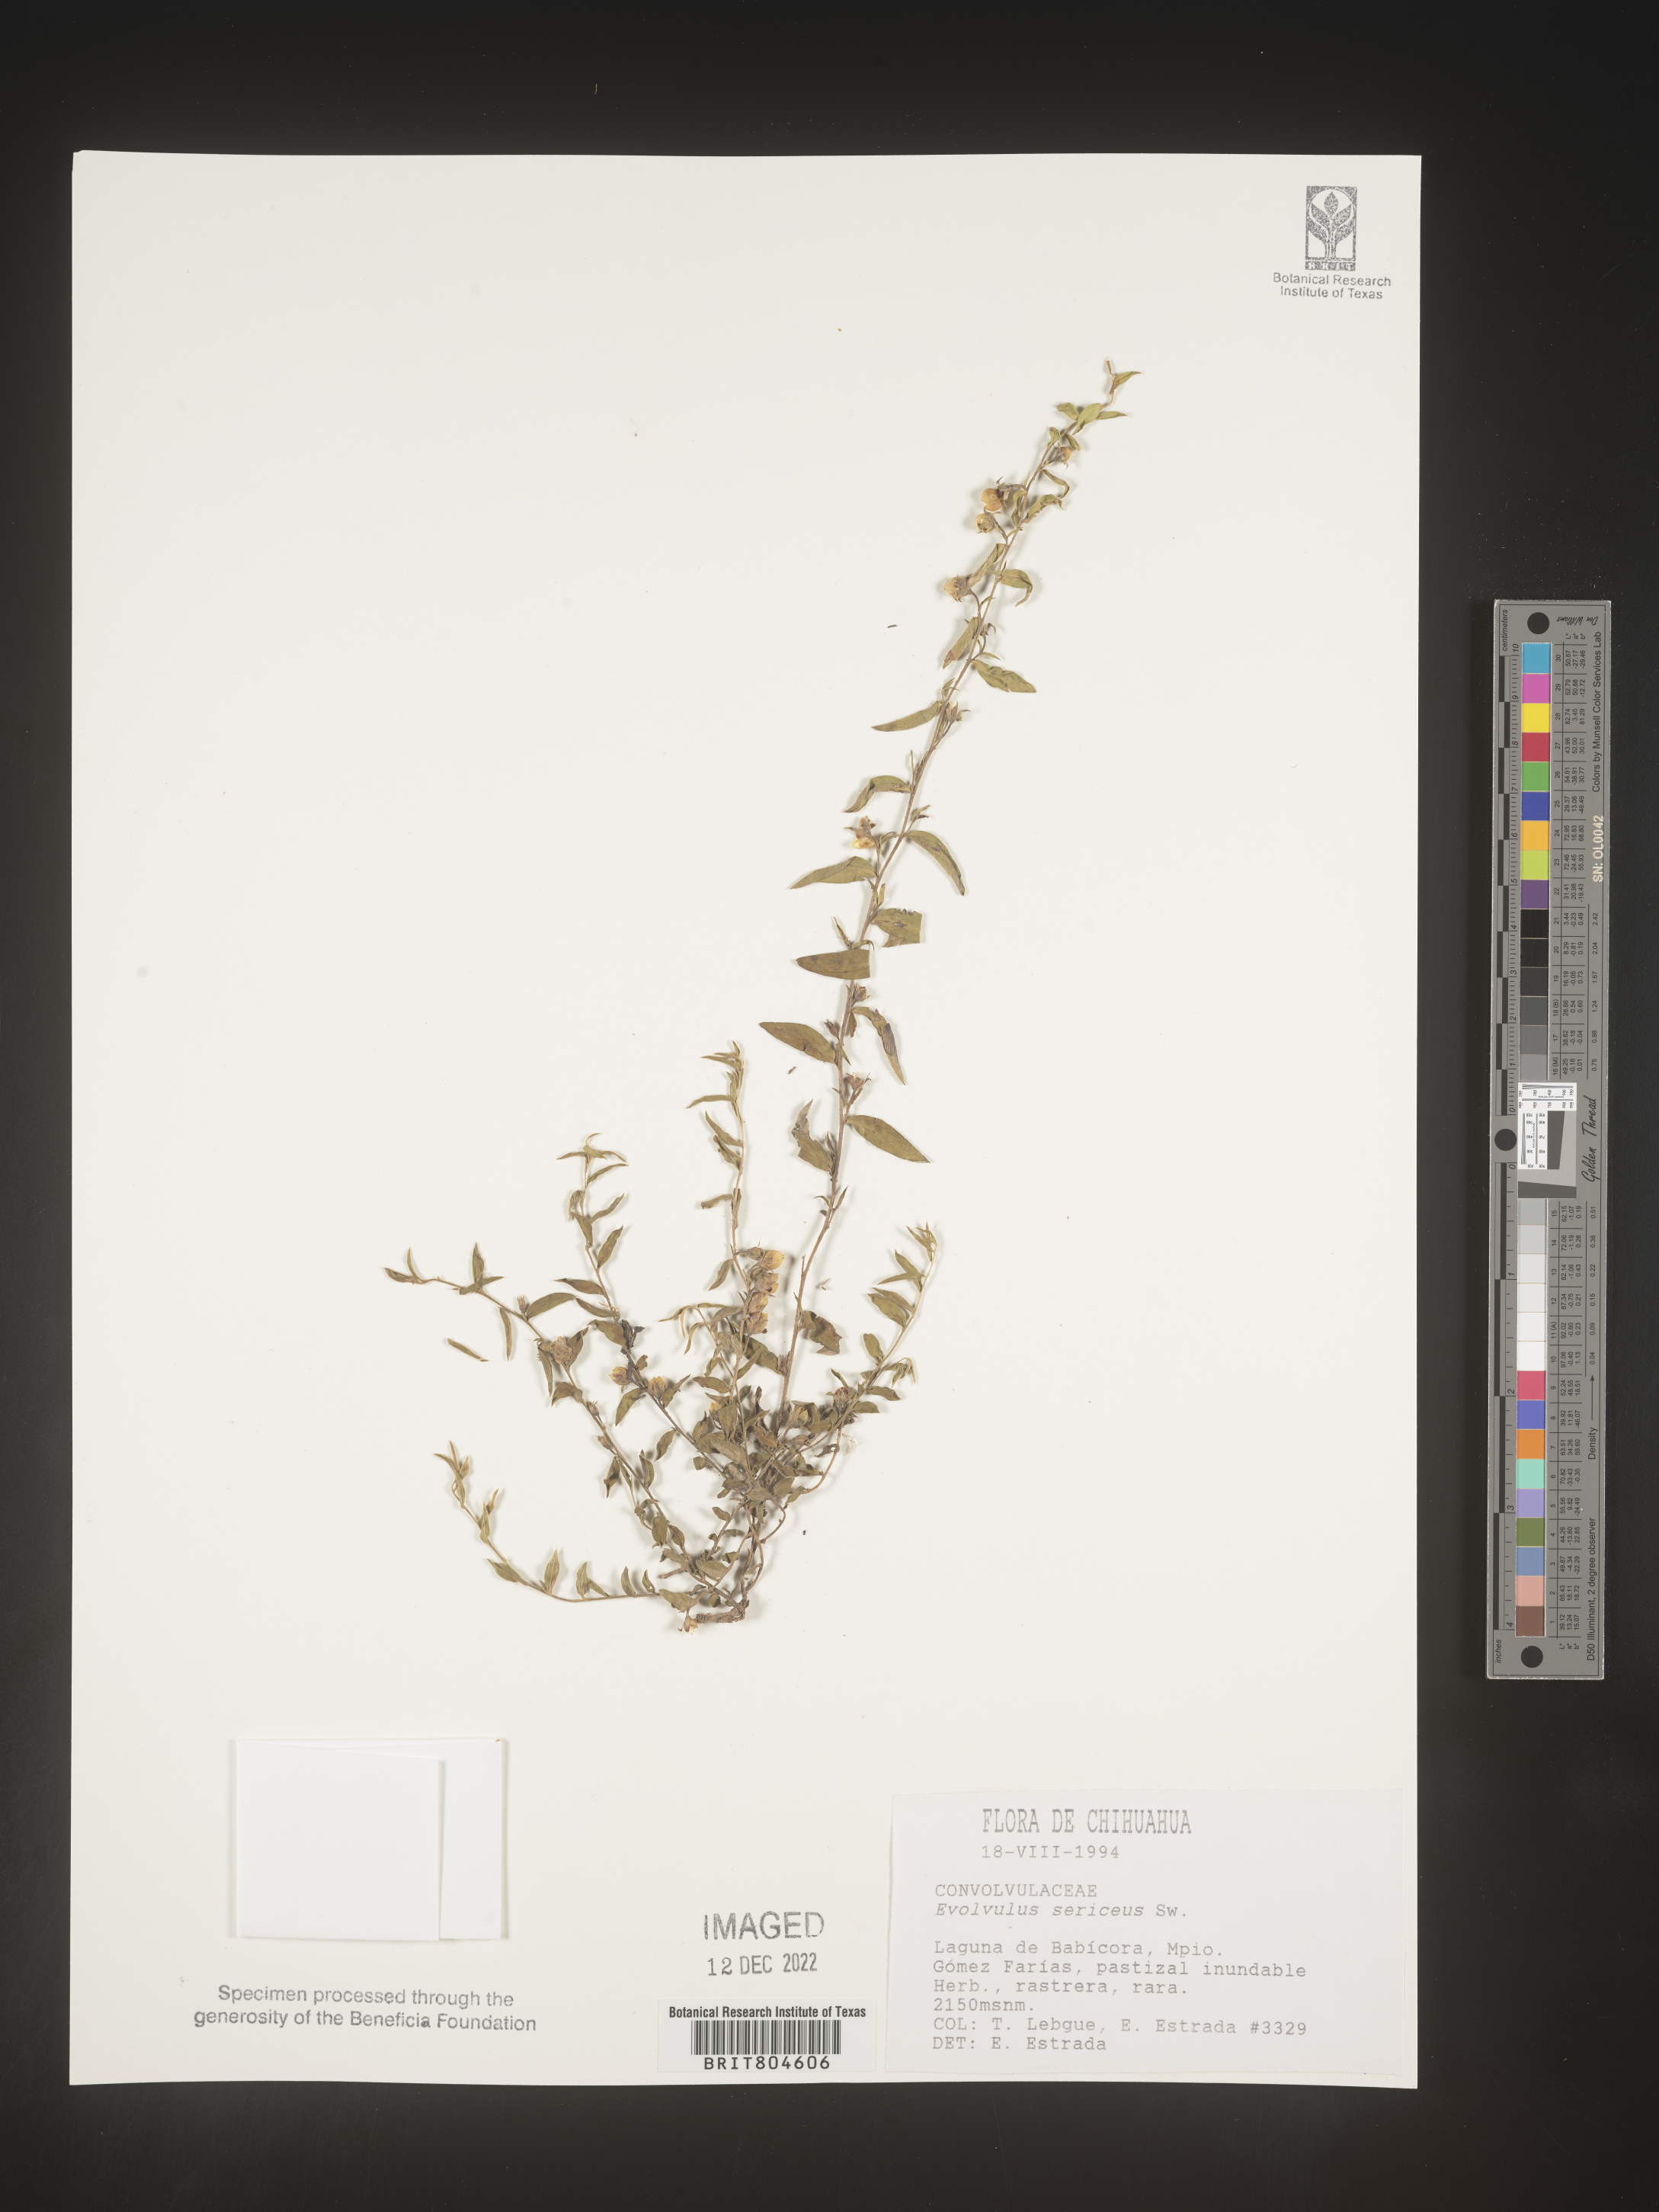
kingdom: Plantae
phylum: Tracheophyta
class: Magnoliopsida
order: Solanales
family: Convolvulaceae
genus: Evolvulus
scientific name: Evolvulus
